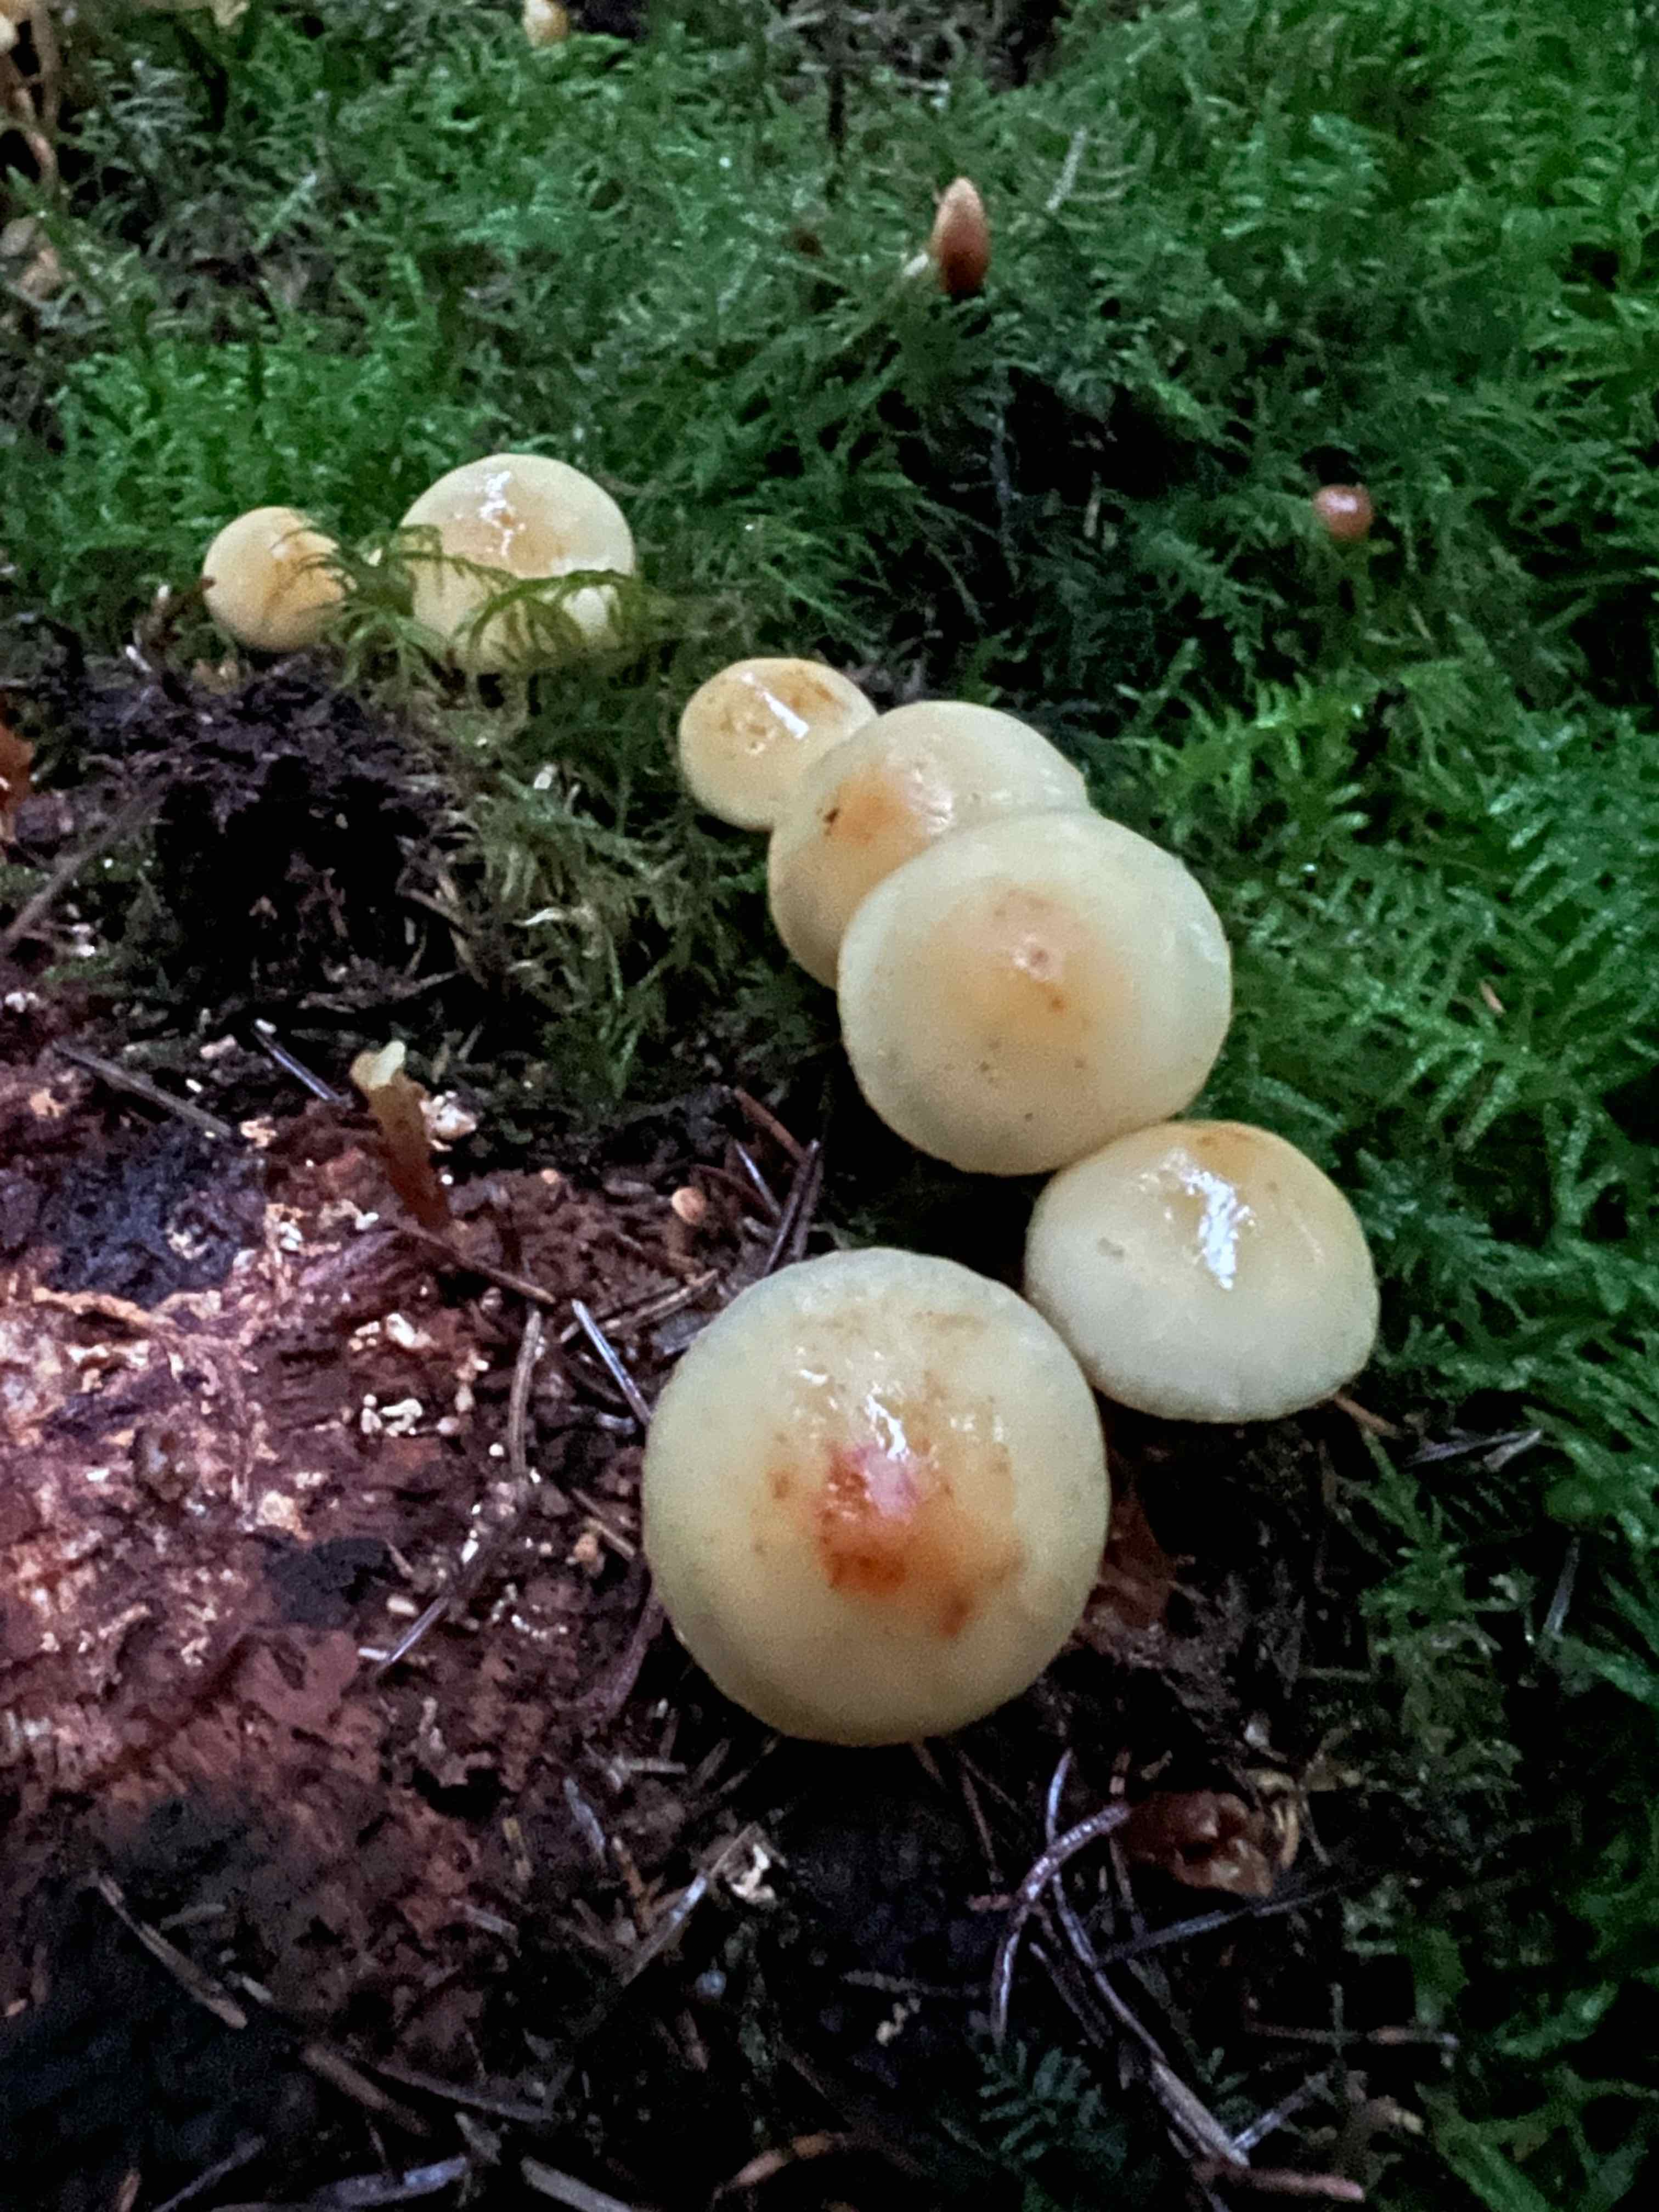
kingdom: Fungi
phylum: Basidiomycota
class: Agaricomycetes
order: Agaricales
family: Strophariaceae
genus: Hypholoma
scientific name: Hypholoma capnoides
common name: gran-svovlhat
